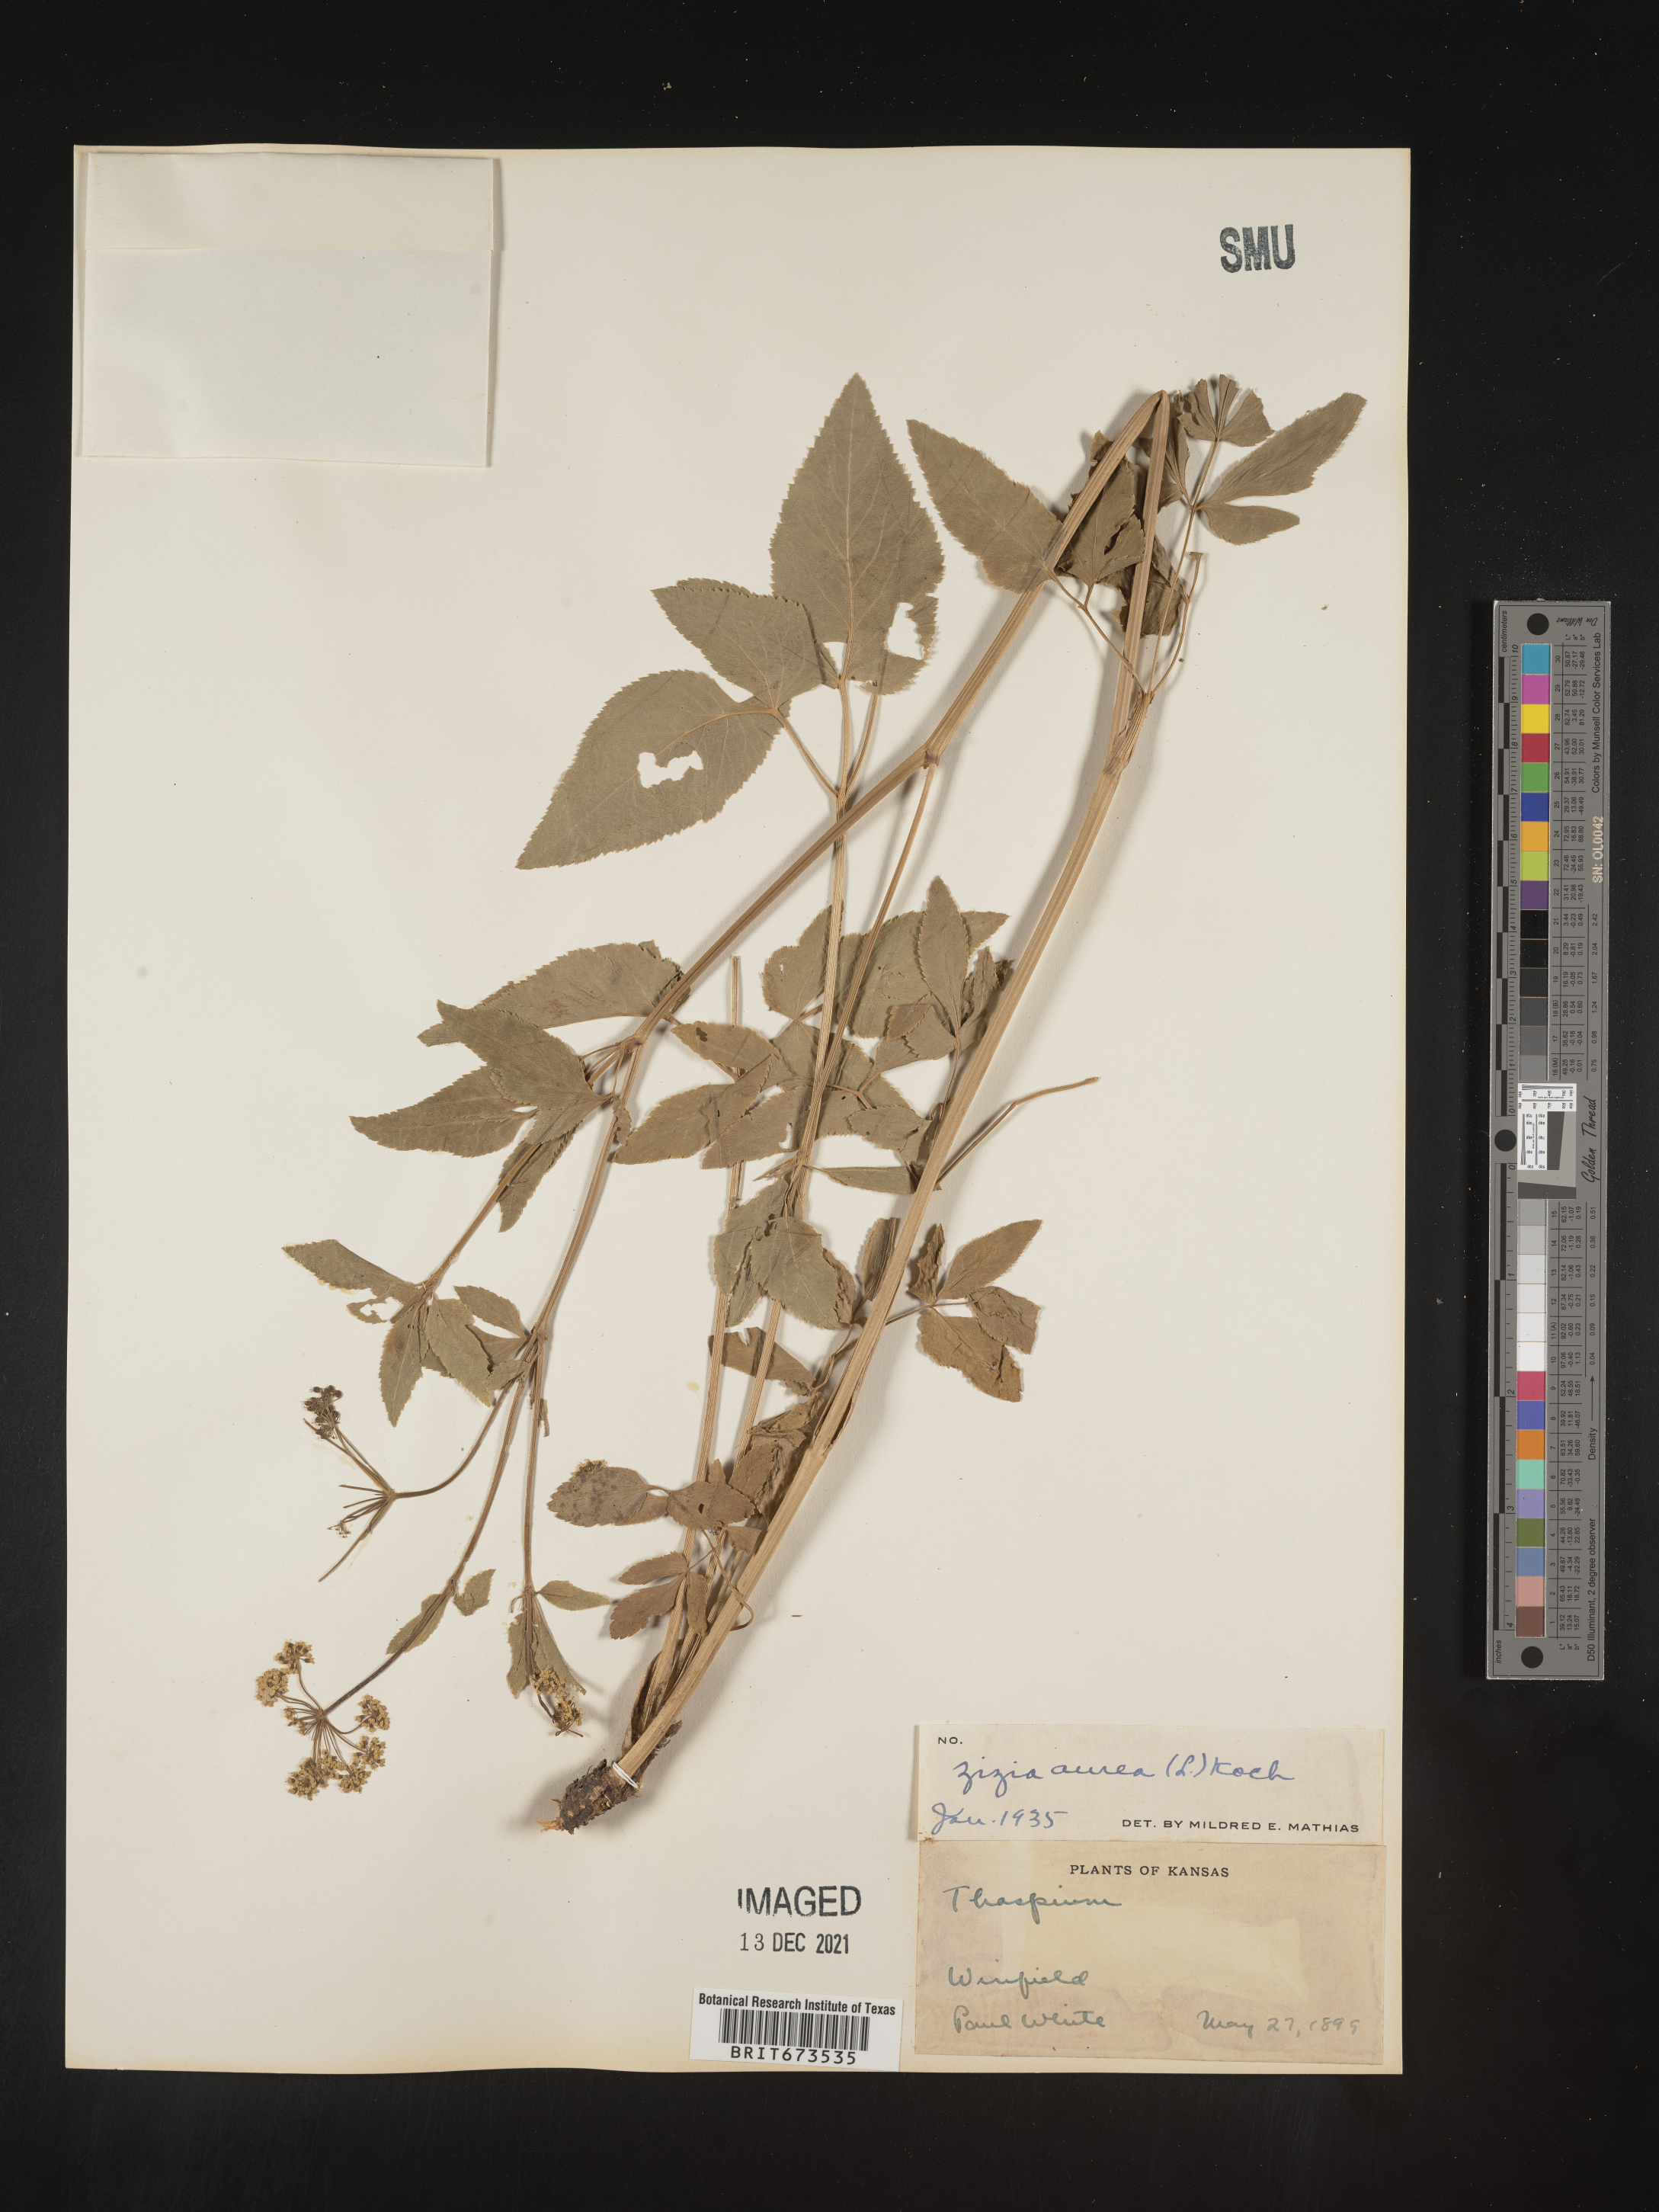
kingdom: Plantae
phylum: Tracheophyta
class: Magnoliopsida
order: Apiales
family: Apiaceae
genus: Zizia
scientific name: Zizia aurea
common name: Golden alexanders
